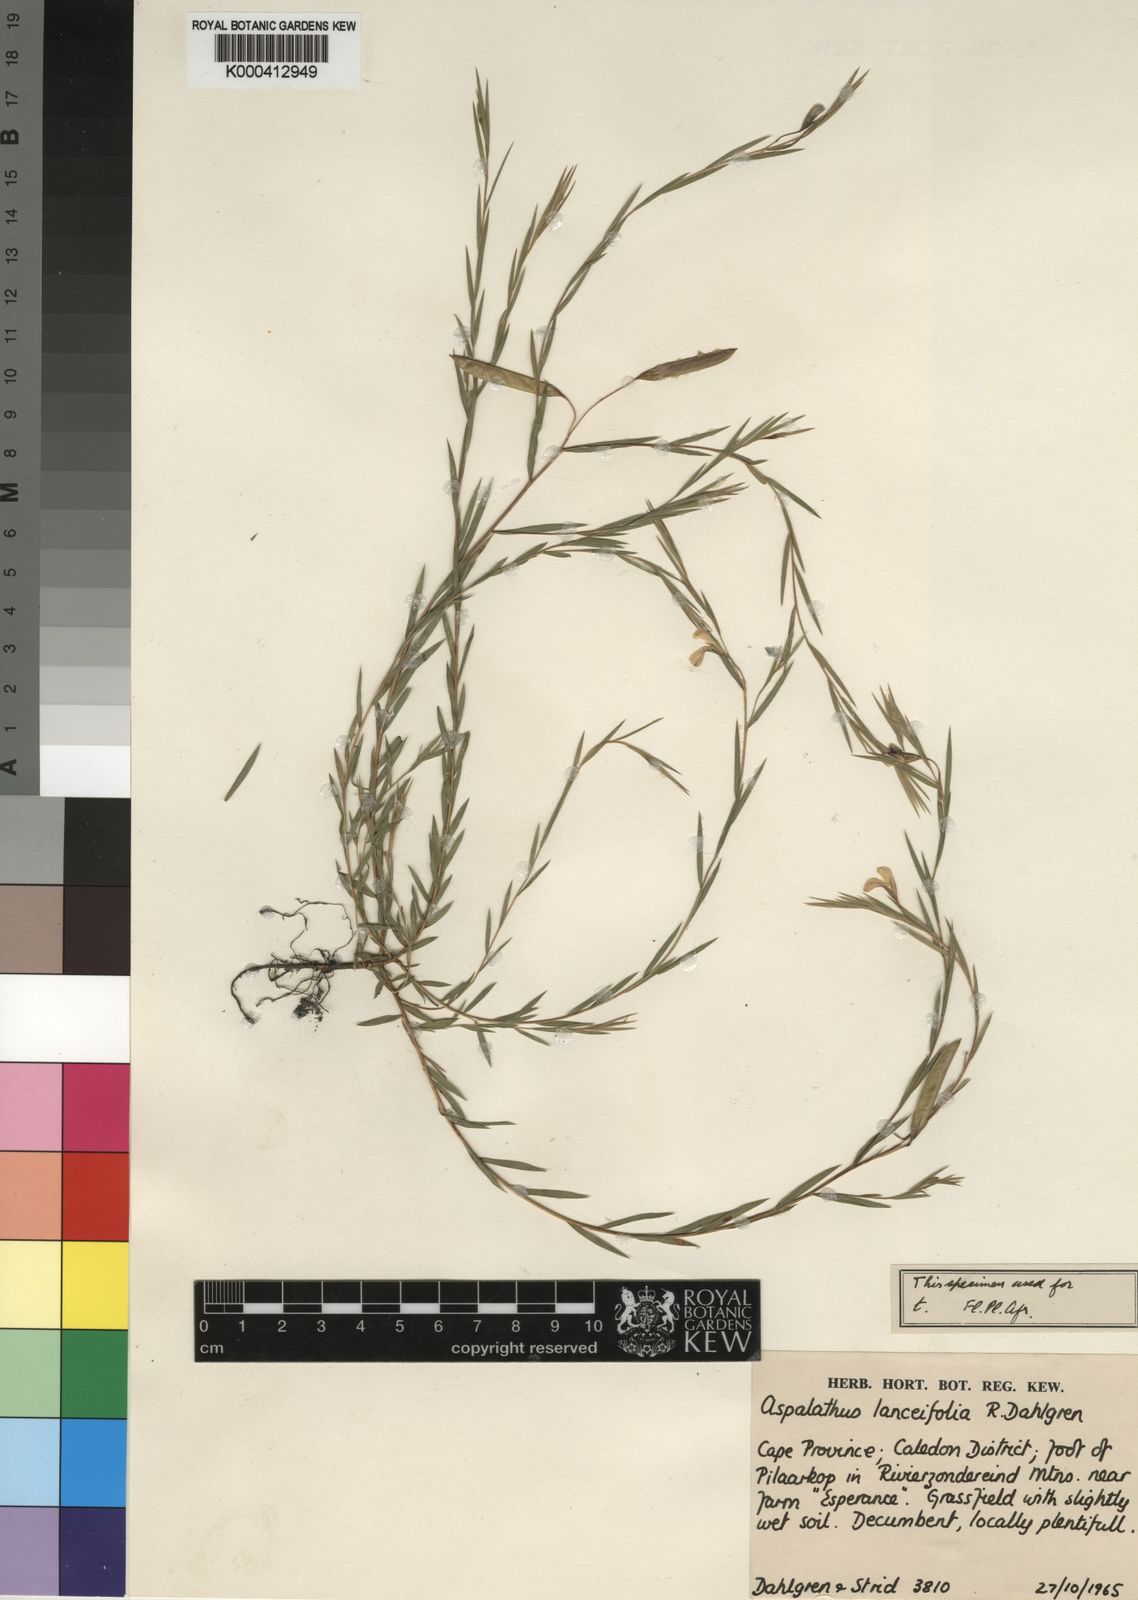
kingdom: Plantae
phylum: Tracheophyta
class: Magnoliopsida
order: Fabales
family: Fabaceae
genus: Aspalathus
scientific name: Aspalathus lanceifolia
